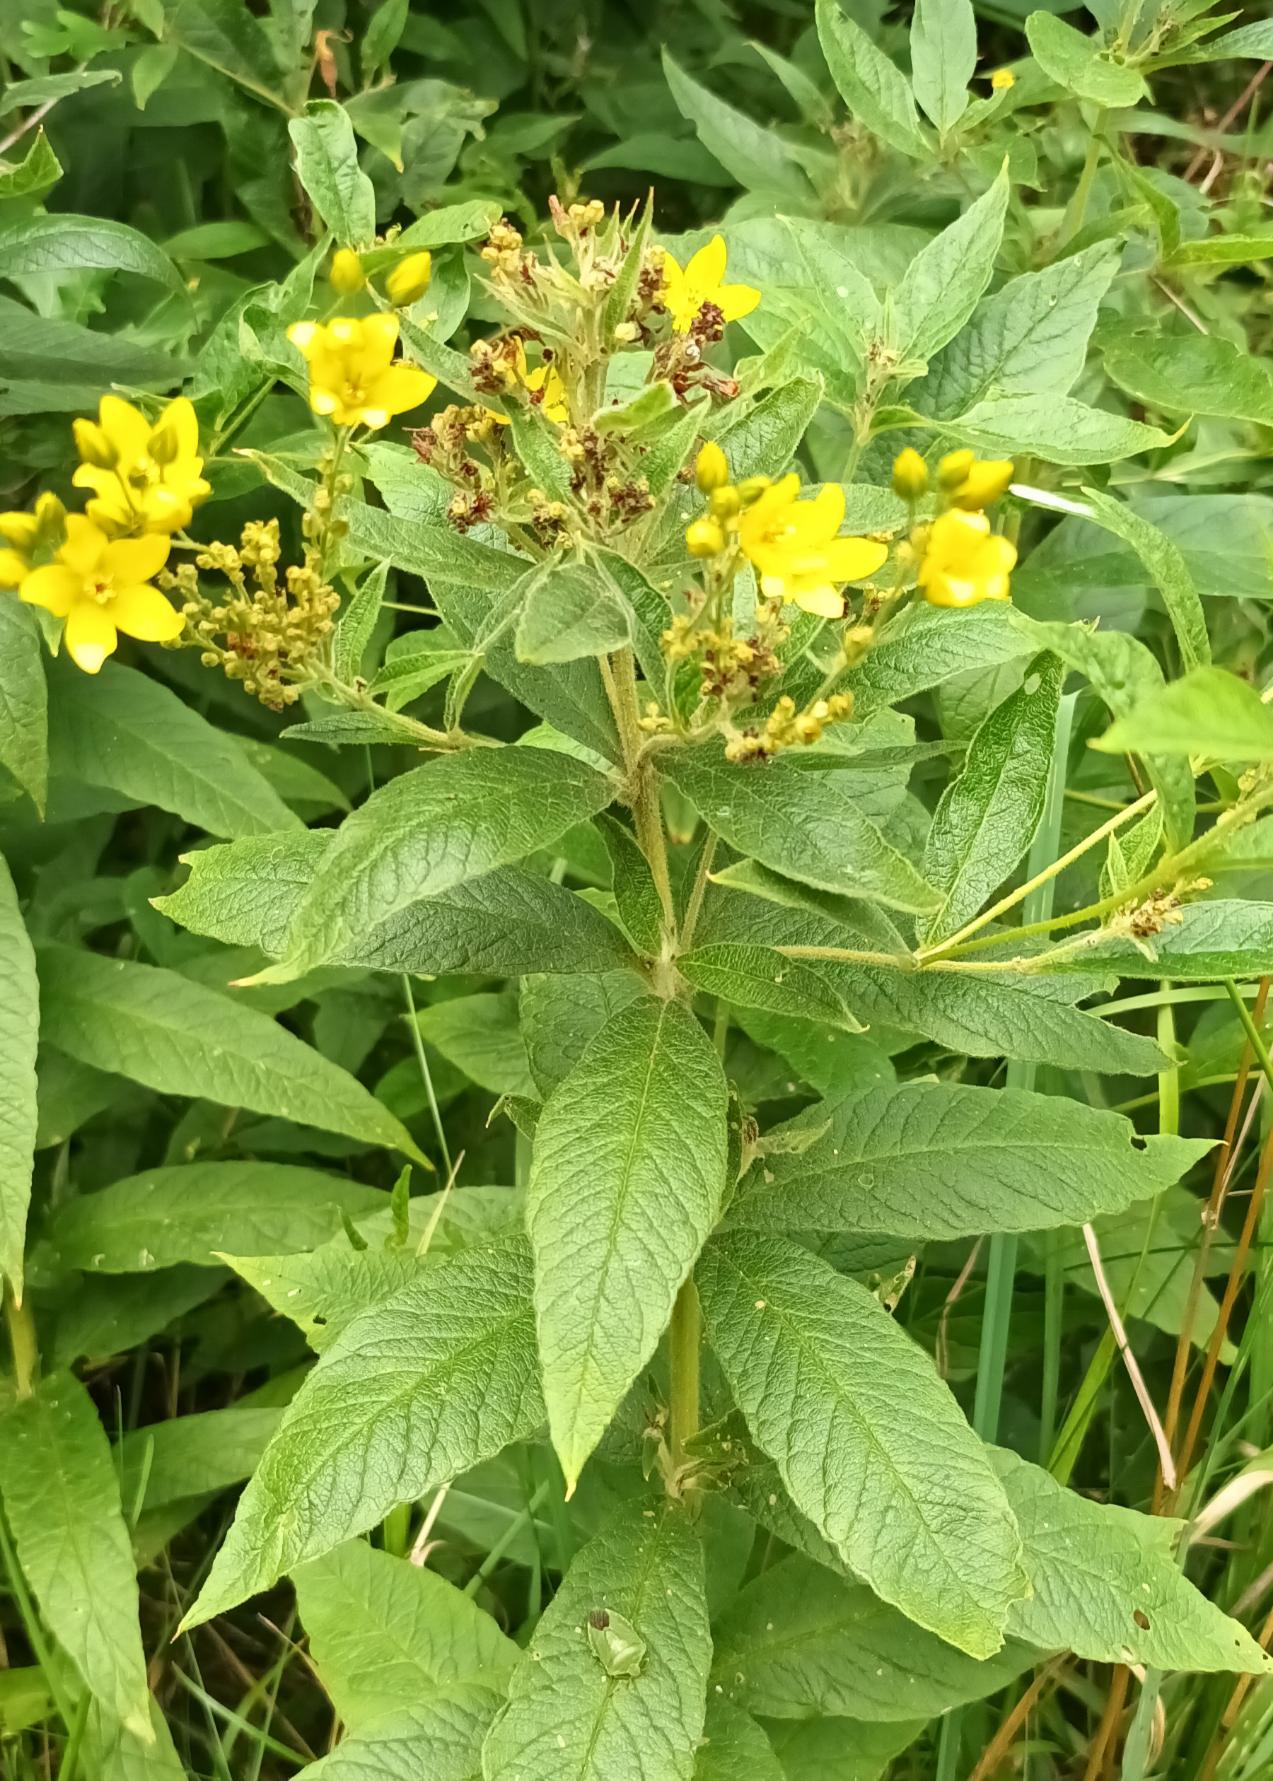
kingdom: Plantae
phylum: Tracheophyta
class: Magnoliopsida
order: Ericales
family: Primulaceae
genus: Lysimachia
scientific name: Lysimachia vulgaris
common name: Almindelig fredløs
